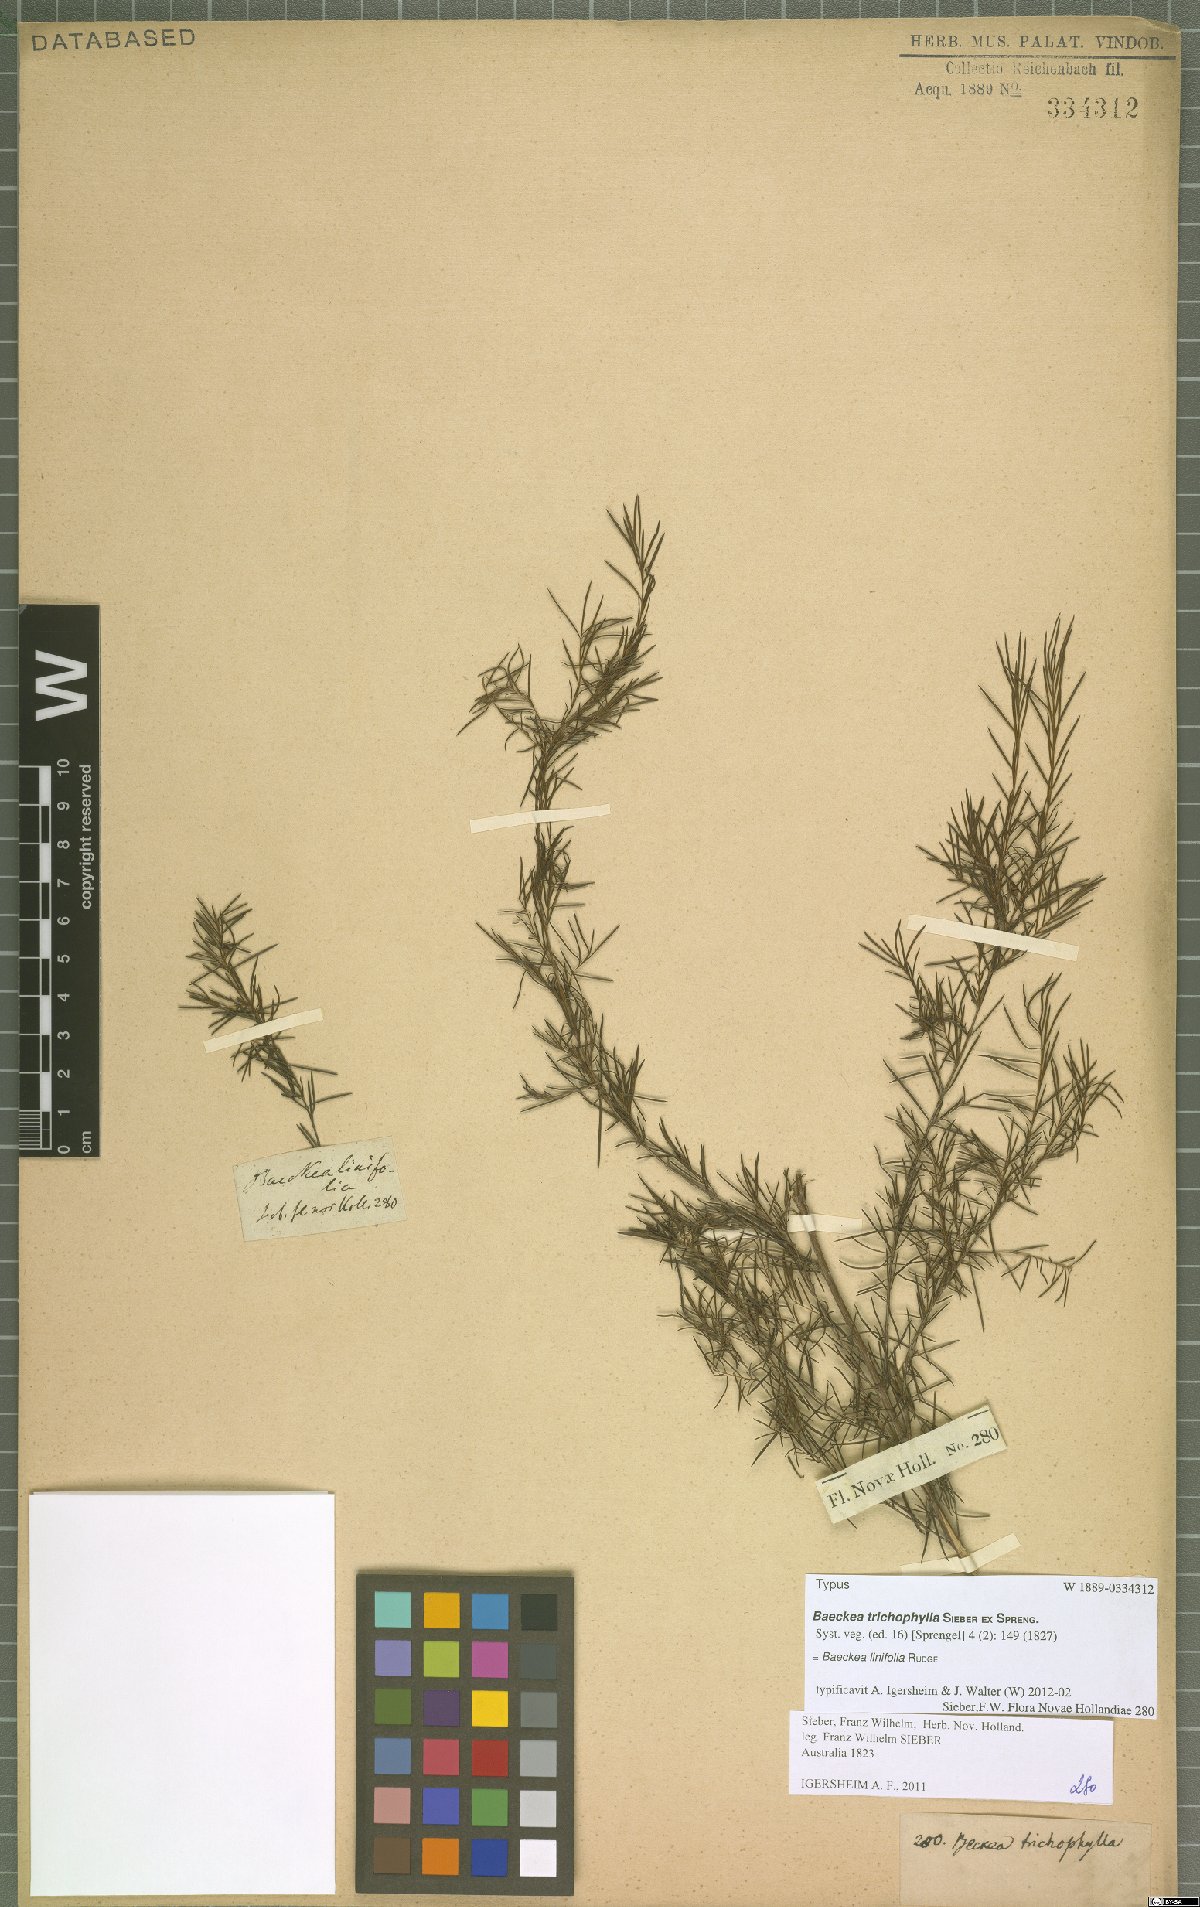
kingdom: Plantae
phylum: Tracheophyta
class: Magnoliopsida
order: Myrtales
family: Myrtaceae
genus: Baeckea
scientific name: Baeckea linifolia
